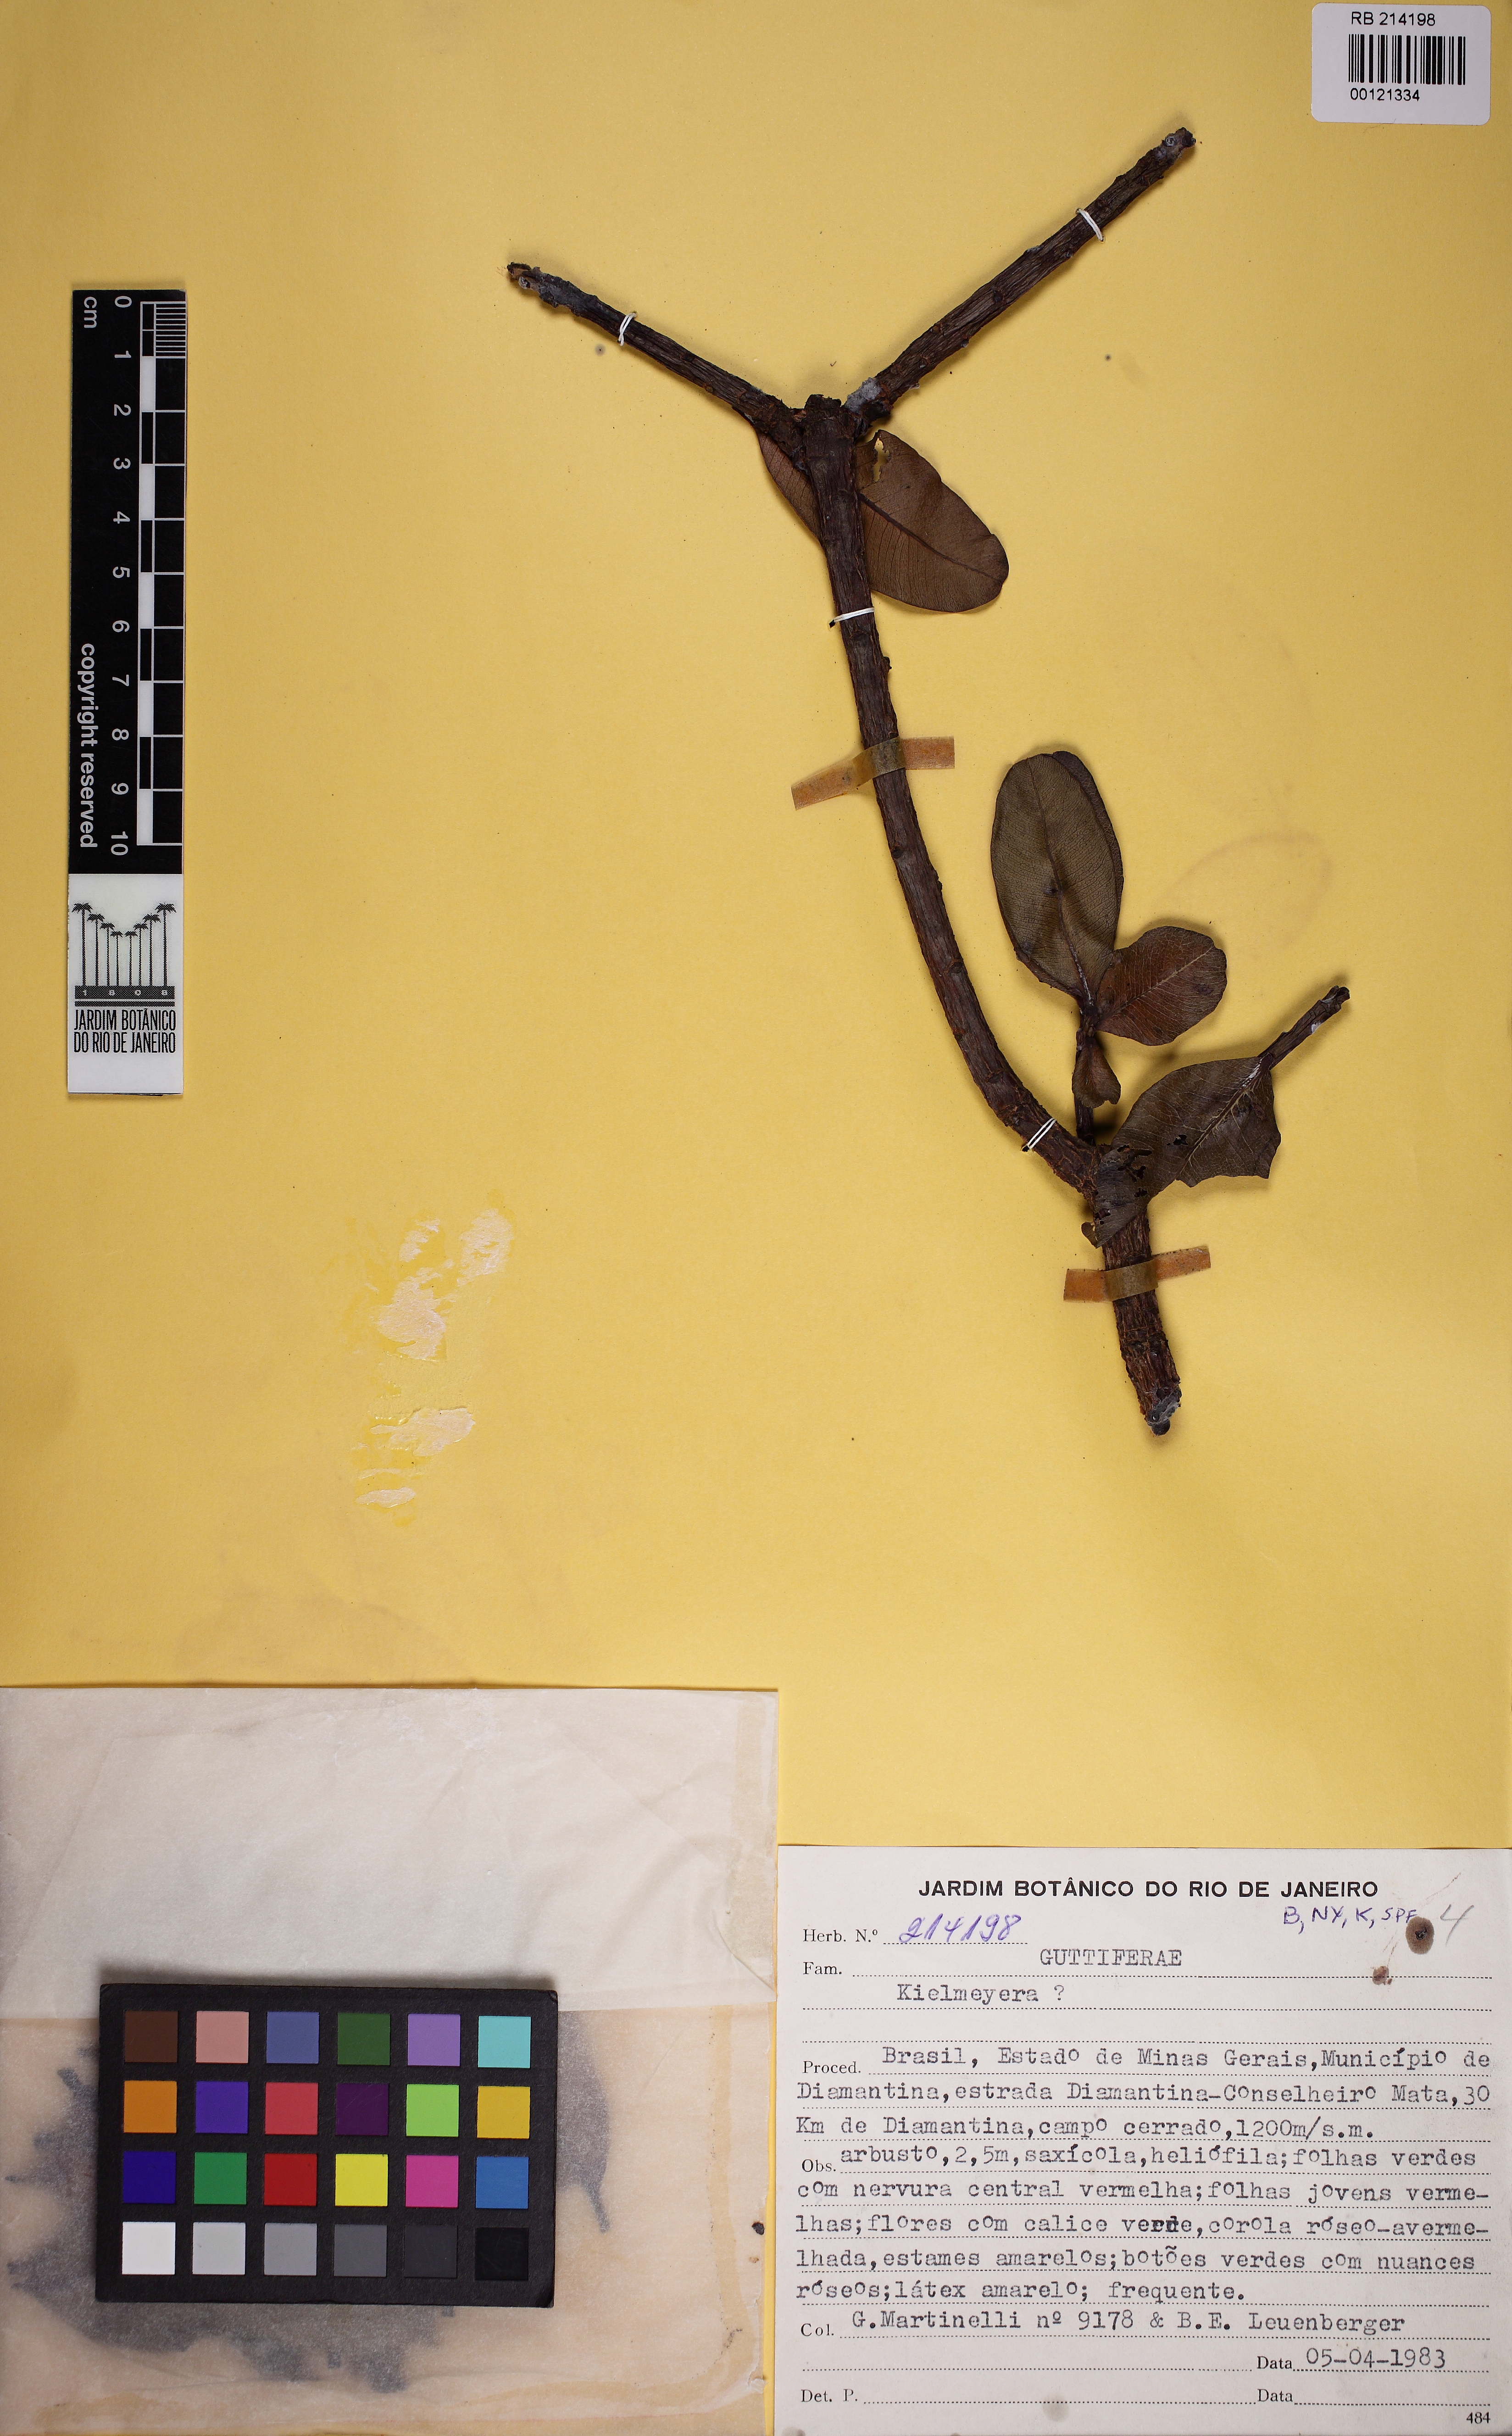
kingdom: Plantae
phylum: Tracheophyta
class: Magnoliopsida
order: Malpighiales
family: Calophyllaceae
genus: Kielmeyera
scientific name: Kielmeyera rosea
